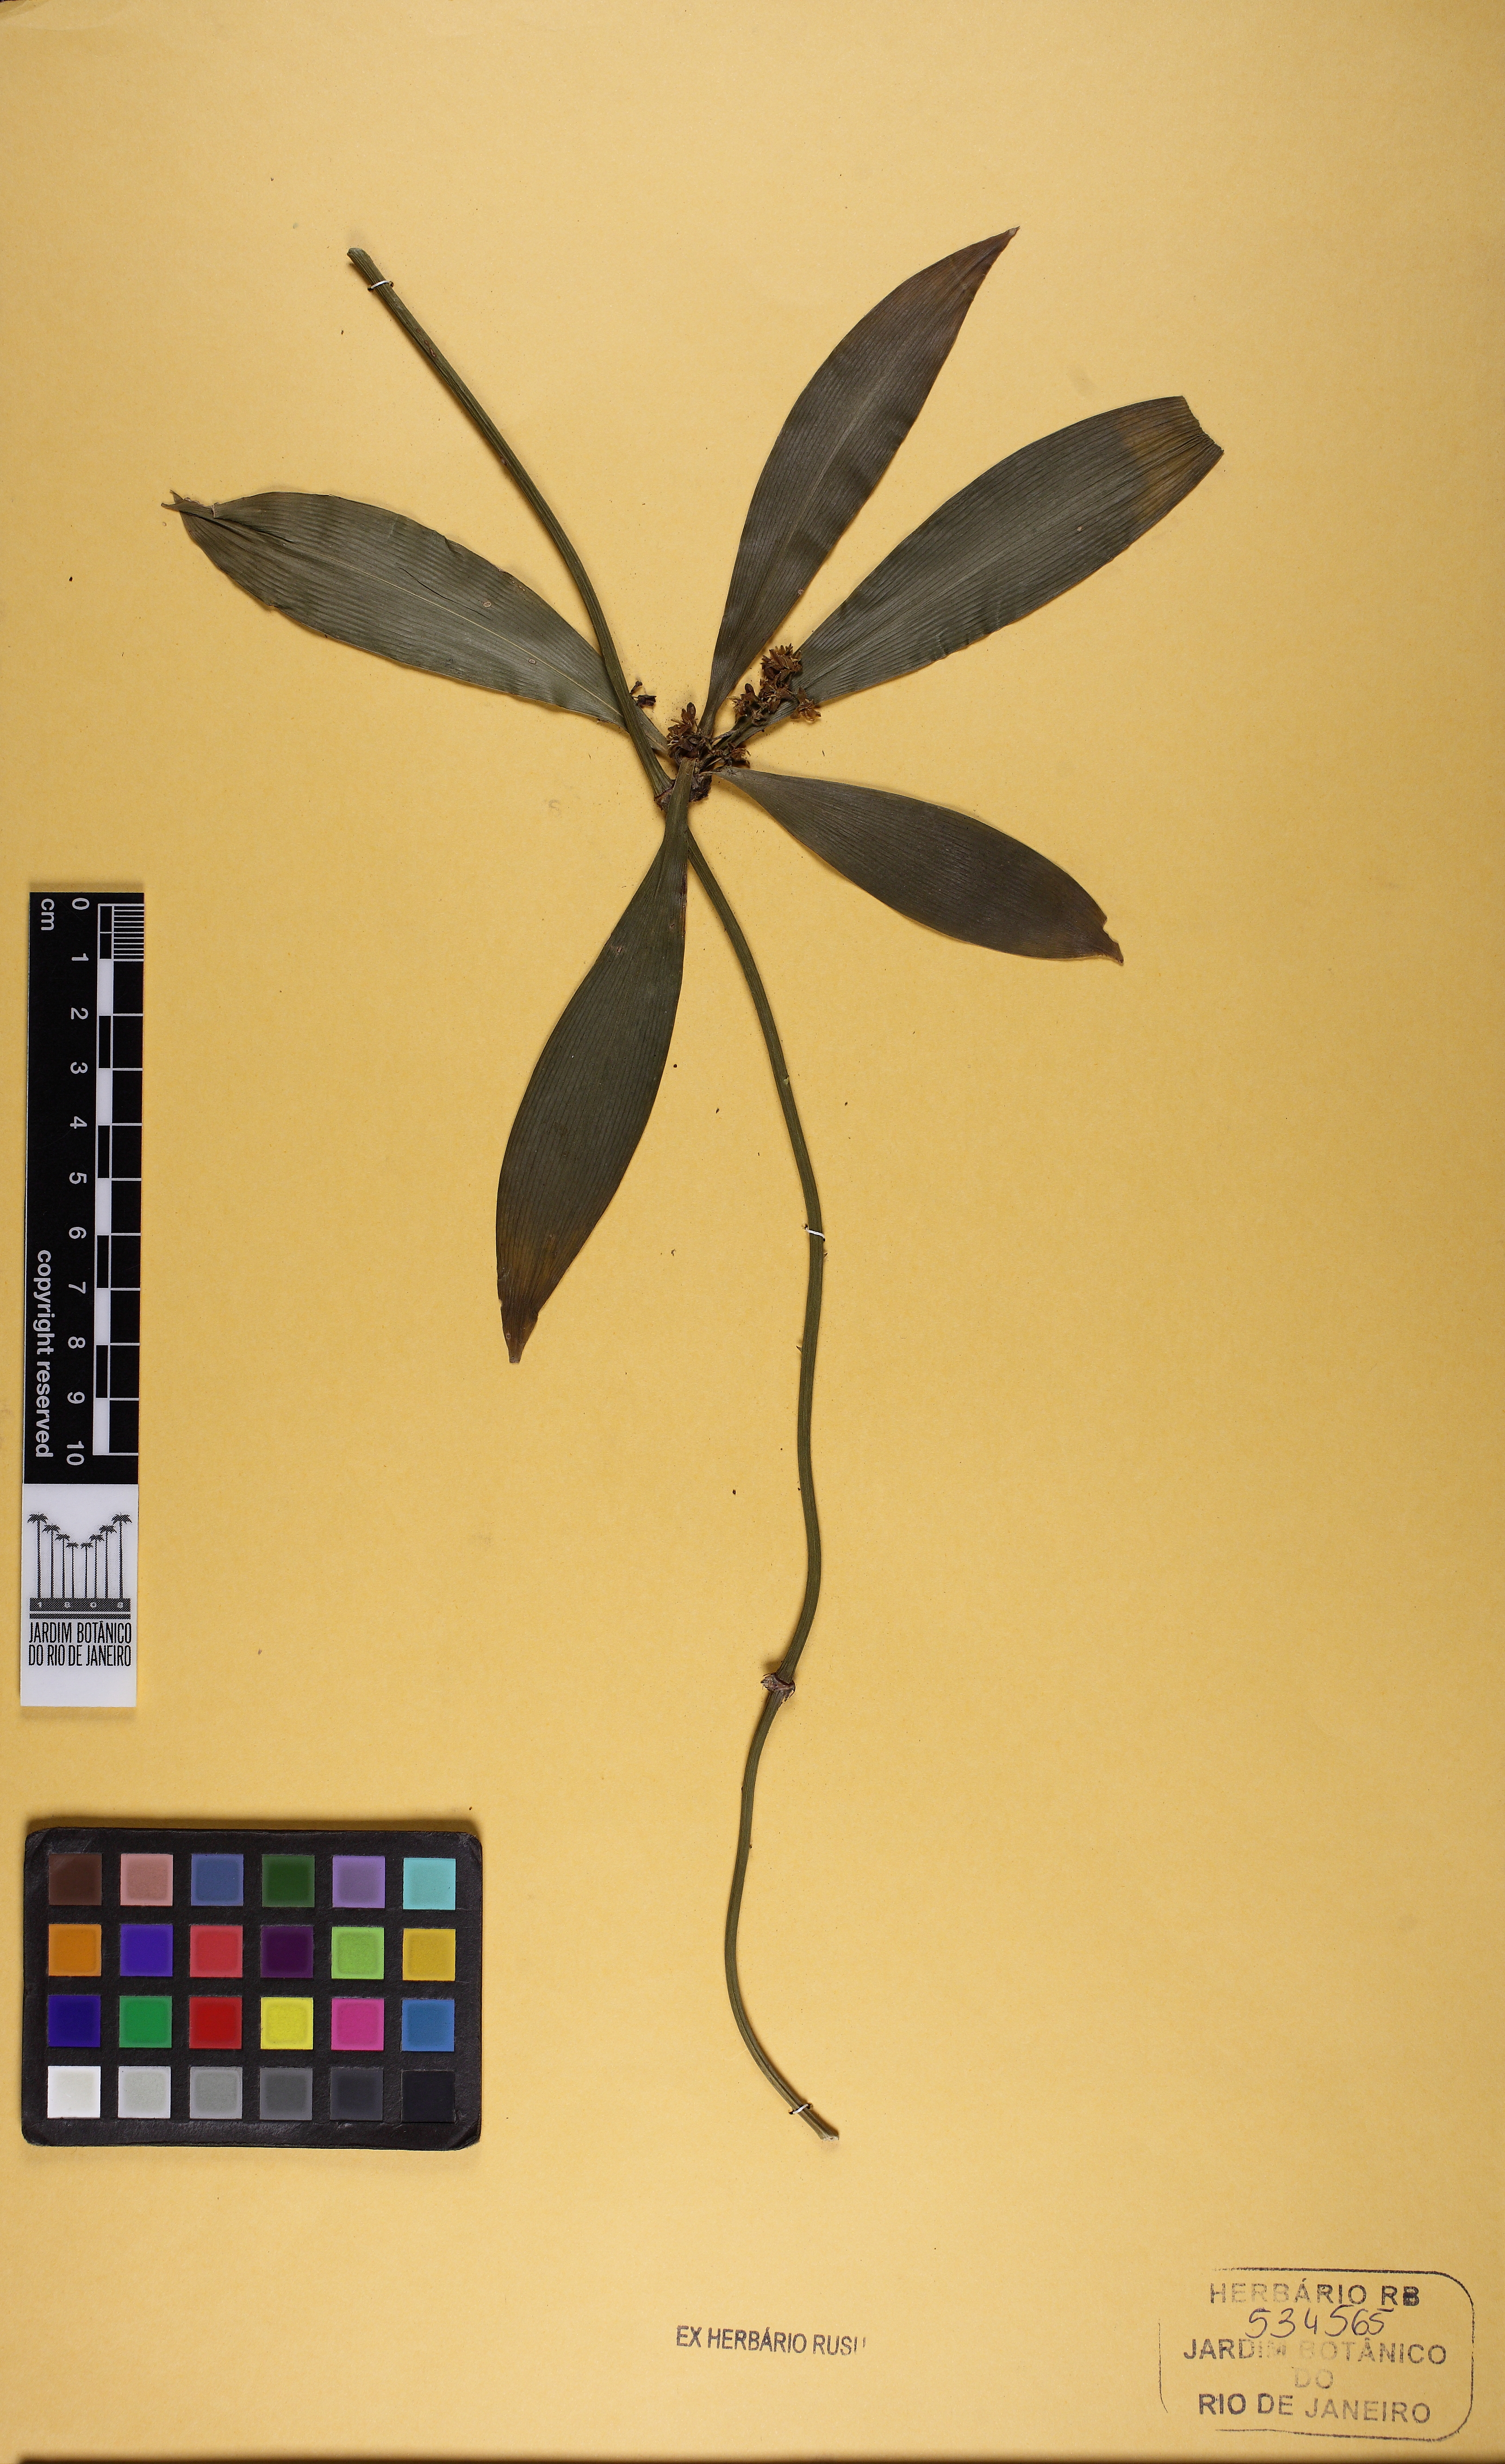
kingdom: Plantae
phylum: Tracheophyta
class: Liliopsida
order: Asparagales
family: Asparagaceae
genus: Herreria
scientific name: Herreria salsaparilha
